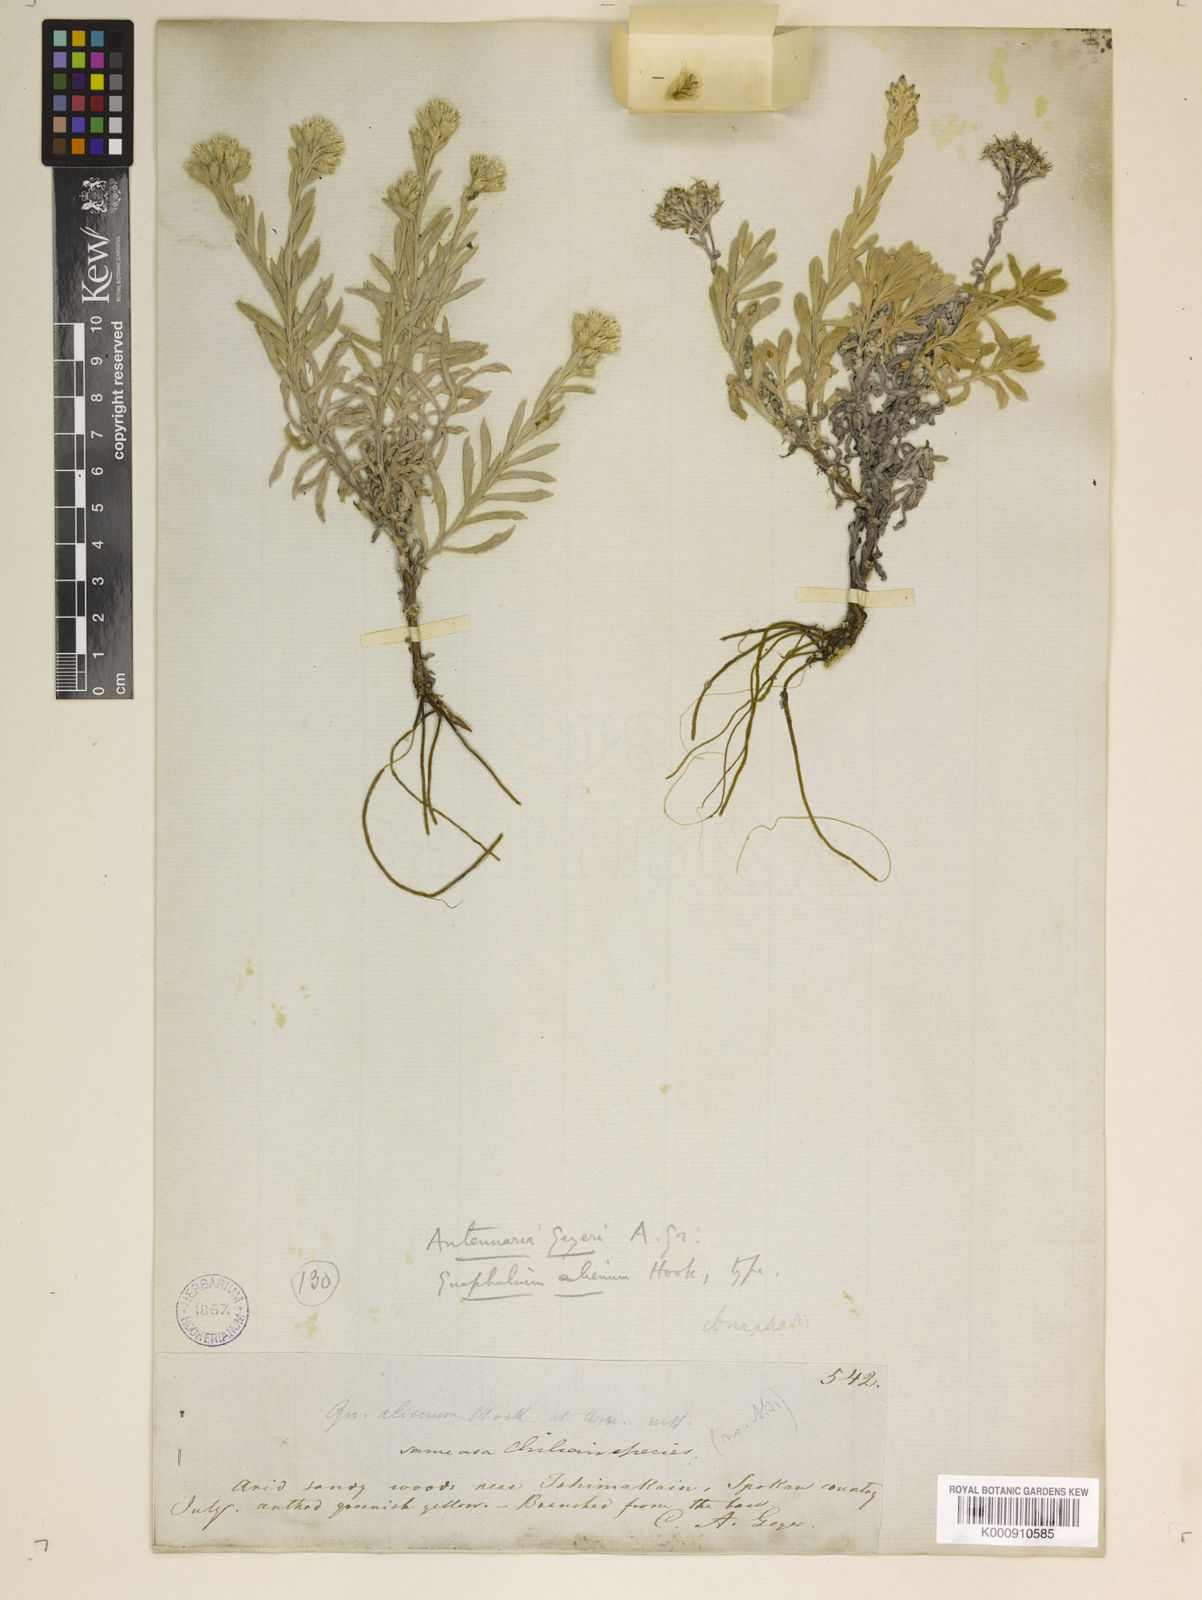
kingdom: Plantae
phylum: Tracheophyta
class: Magnoliopsida
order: Asterales
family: Asteraceae
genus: Antennaria
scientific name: Antennaria geyeri
